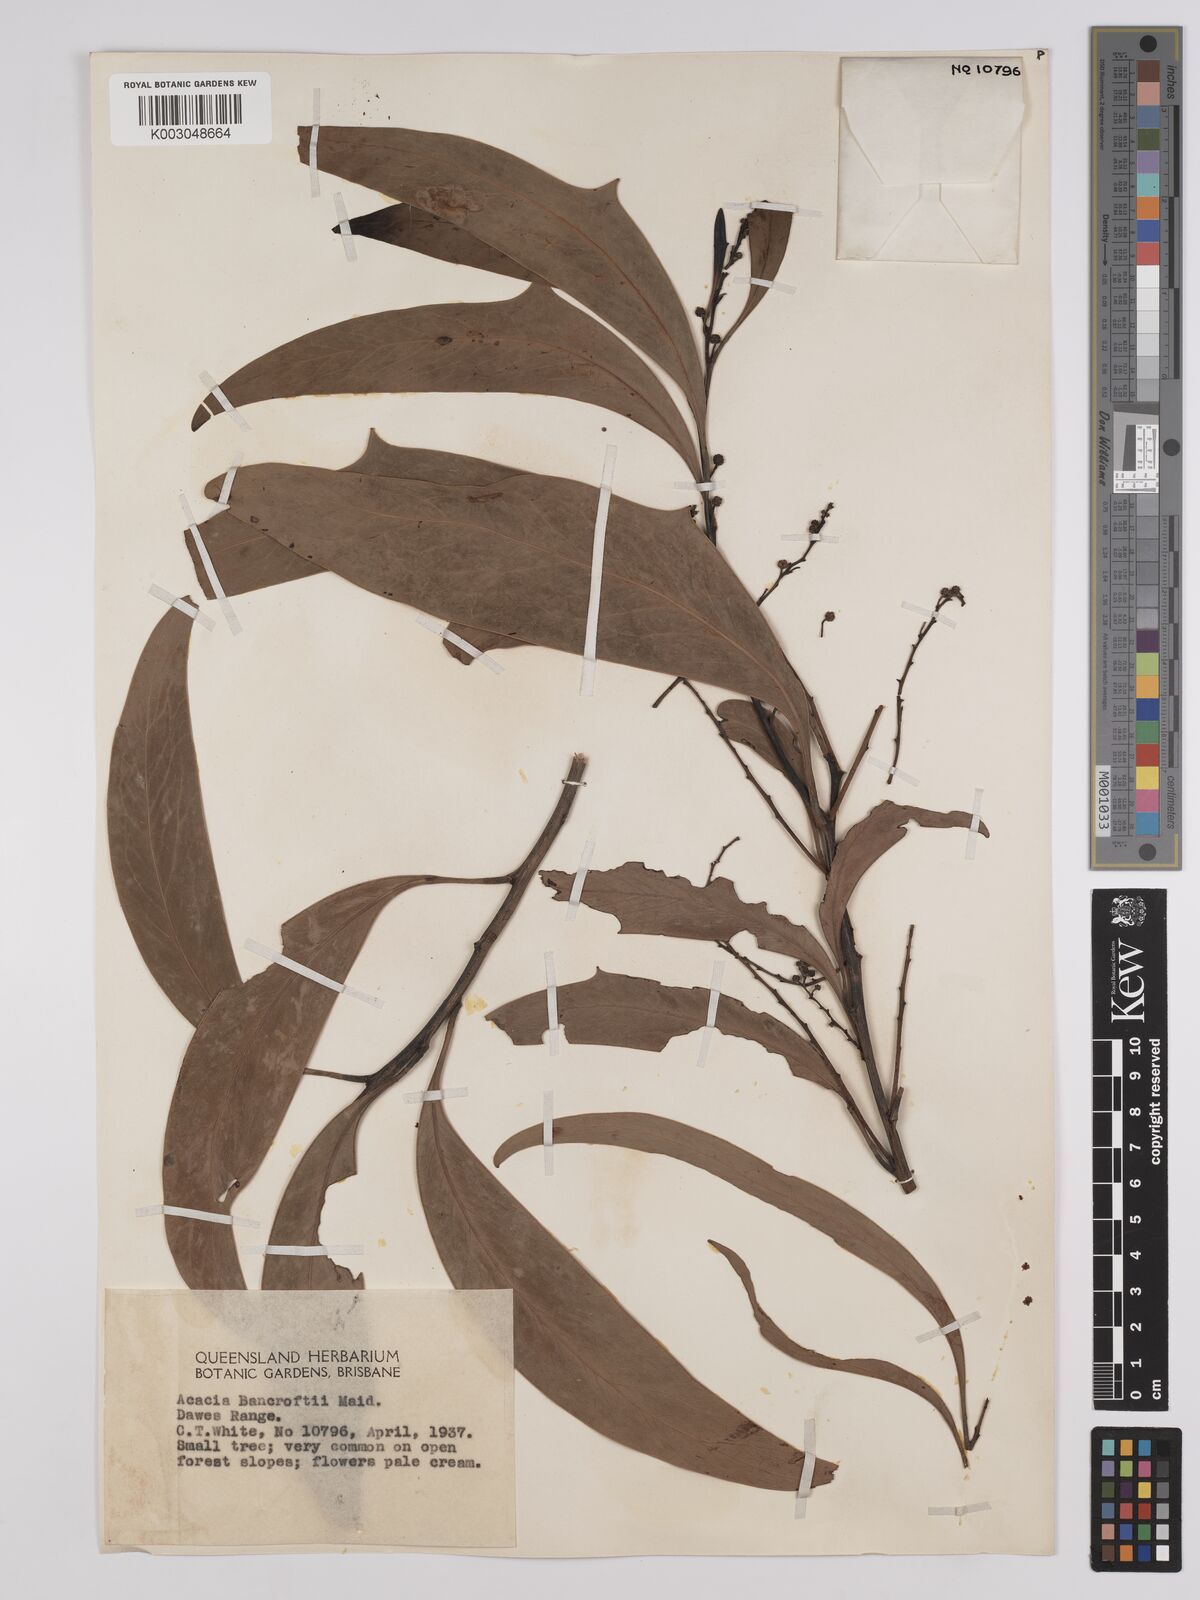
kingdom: Plantae
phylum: Tracheophyta
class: Magnoliopsida
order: Fabales
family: Fabaceae
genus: Acacia
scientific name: Acacia
